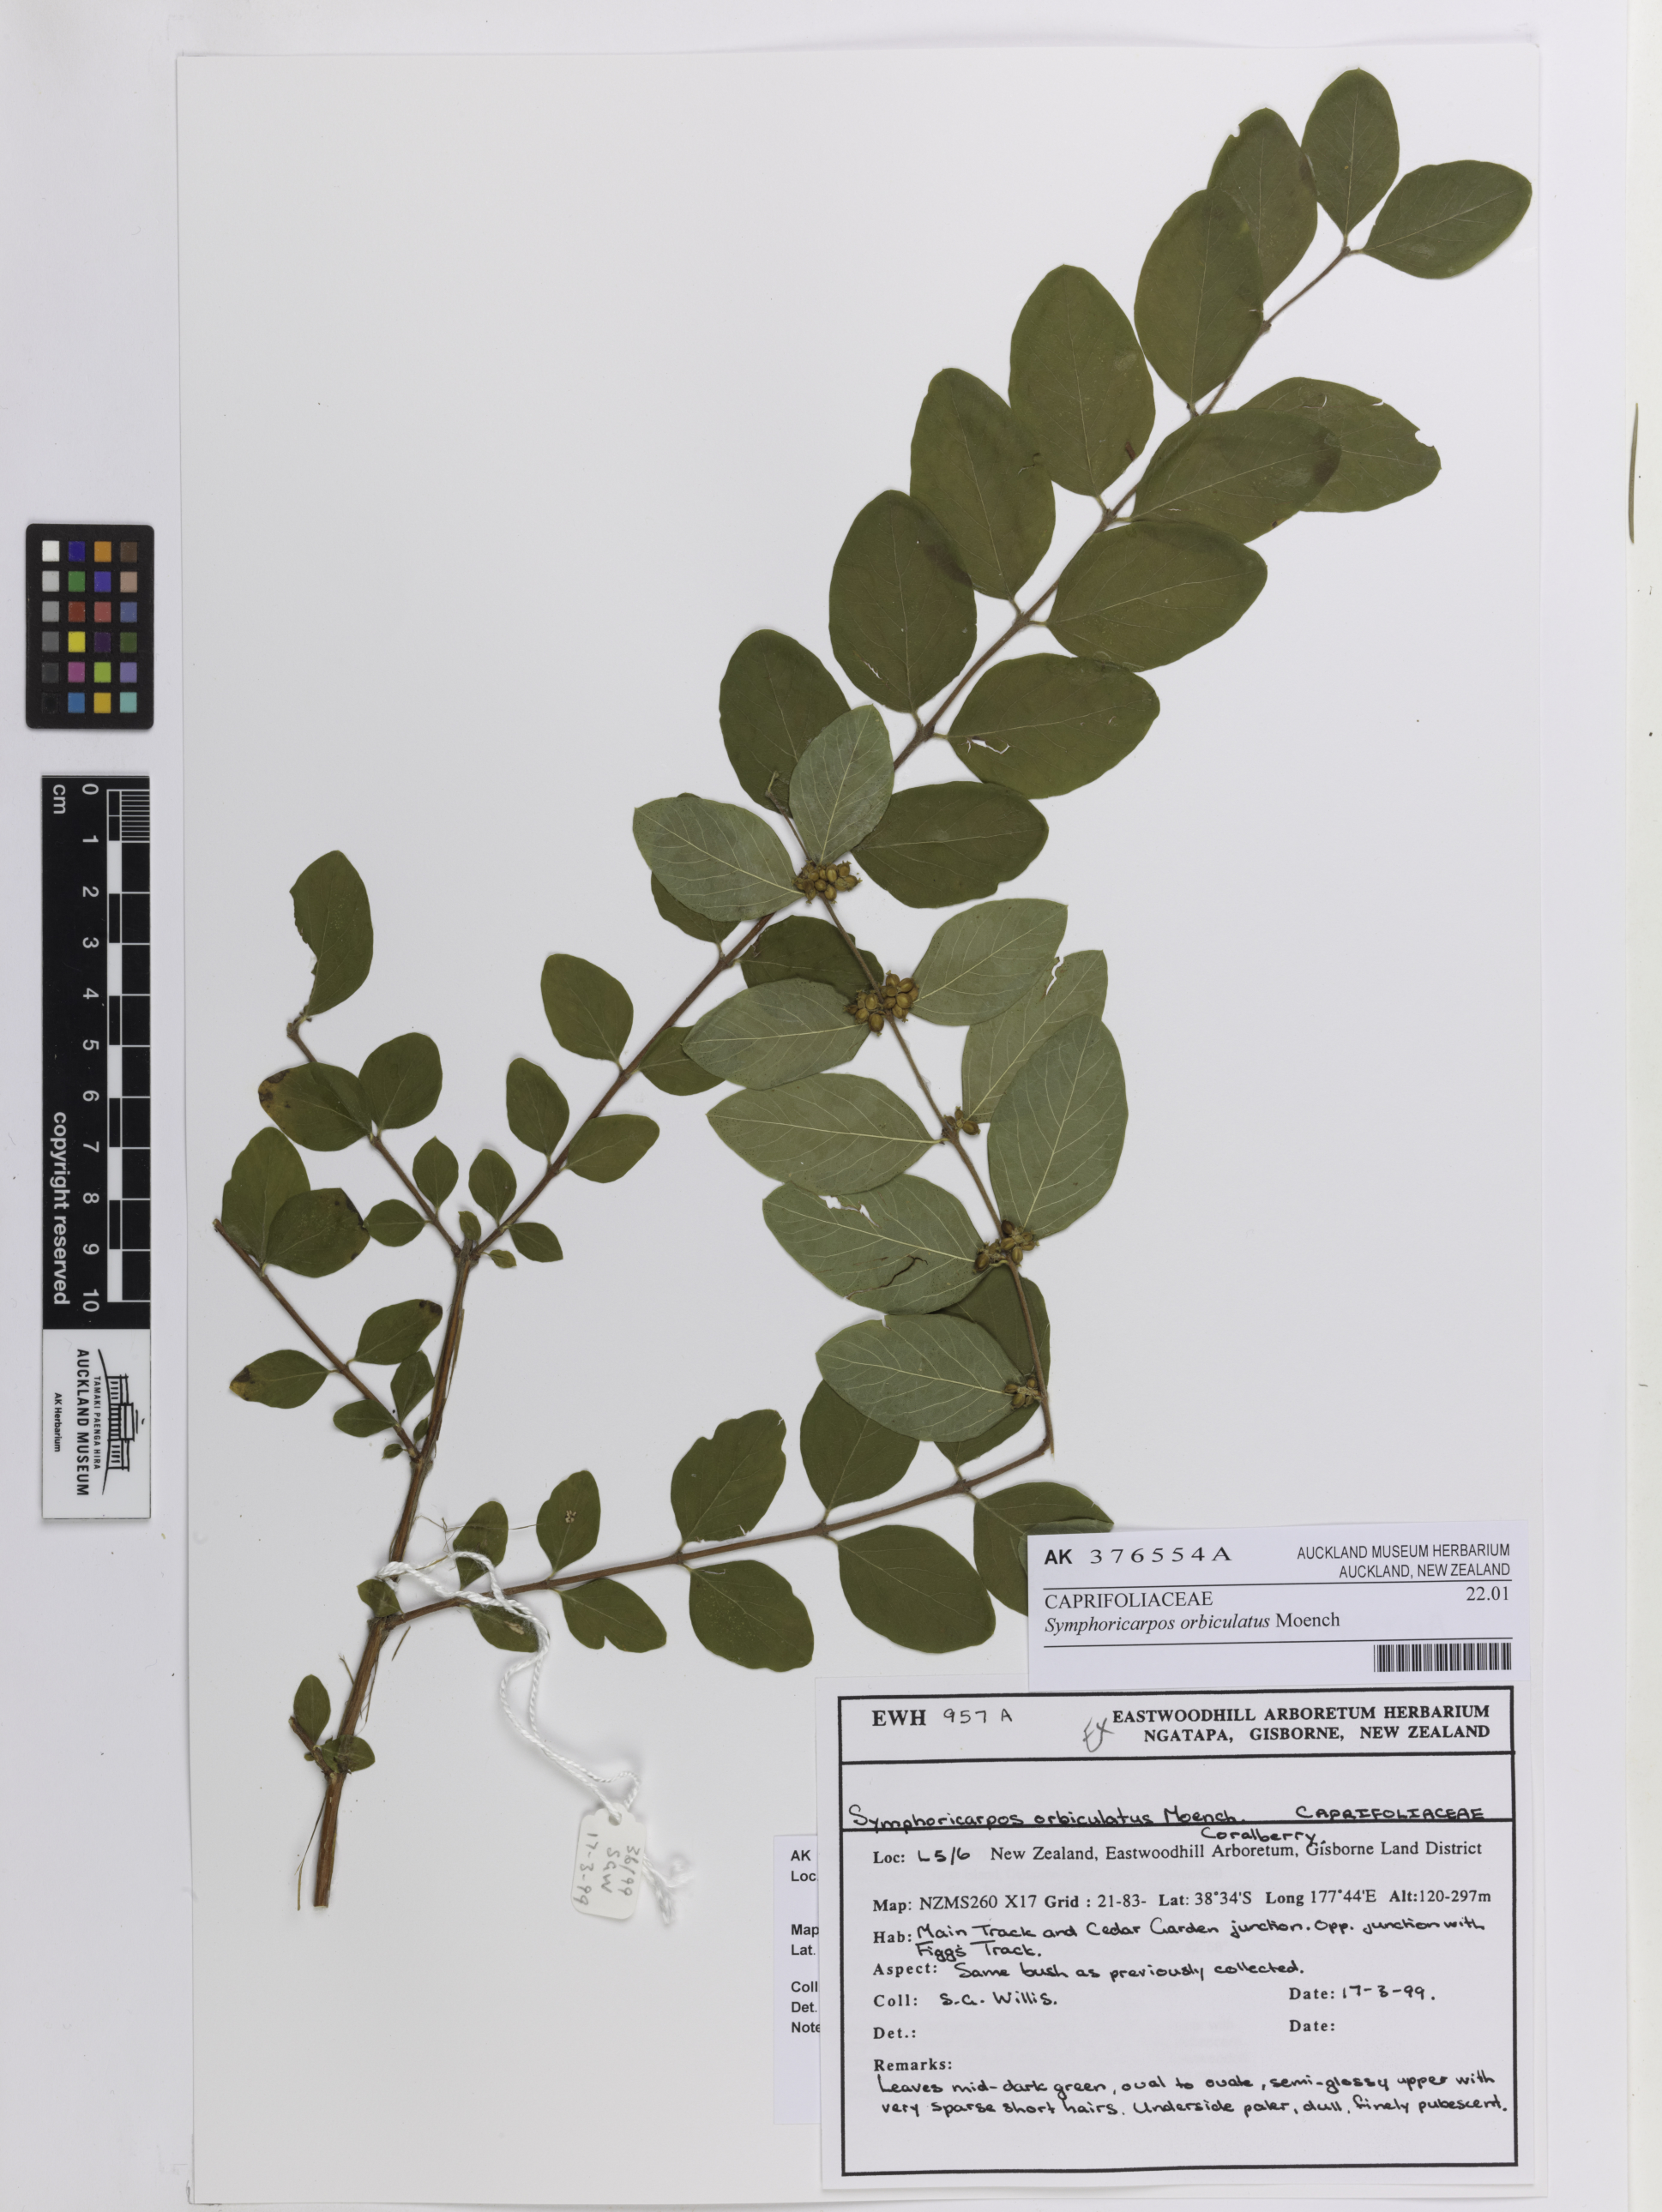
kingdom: Plantae
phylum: Tracheophyta
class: Magnoliopsida
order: Dipsacales
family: Caprifoliaceae
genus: Symphoricarpos
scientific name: Symphoricarpos orbiculatus
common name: Coralberry
